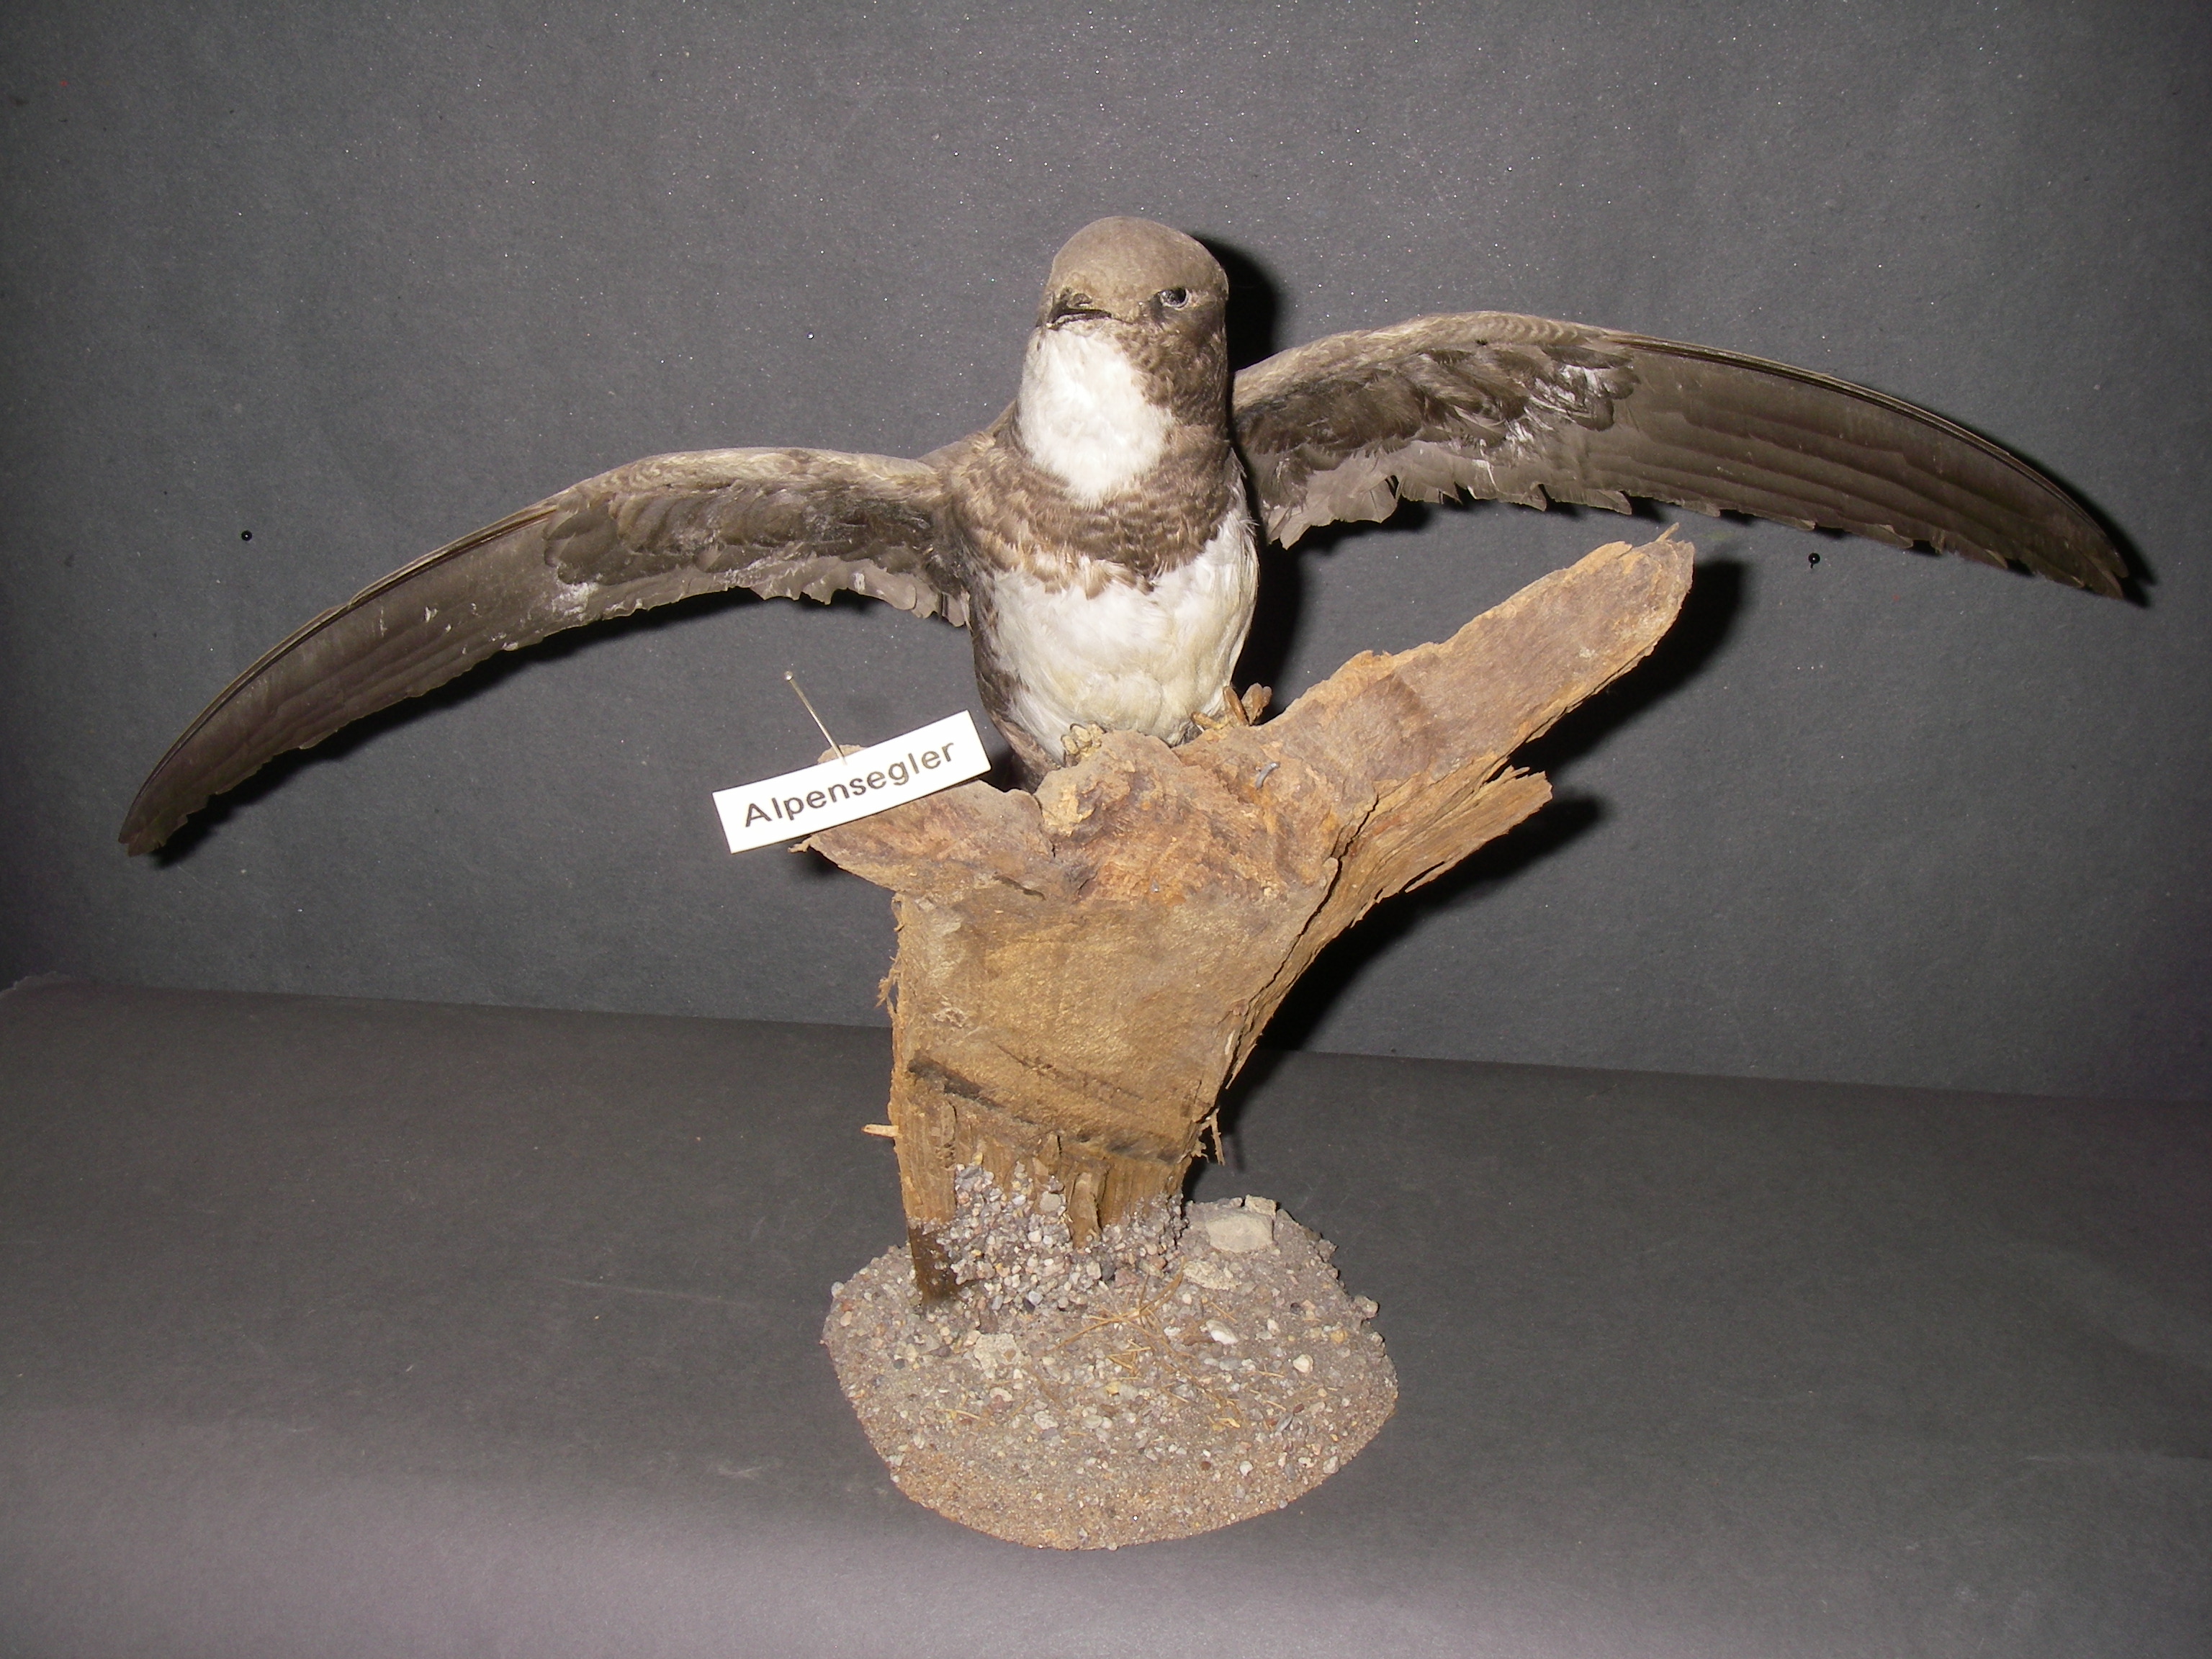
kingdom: Animalia
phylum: Chordata
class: Aves
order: Apodiformes
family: Apodidae
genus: Tachymarptis
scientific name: Tachymarptis melba
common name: Alpine swift
